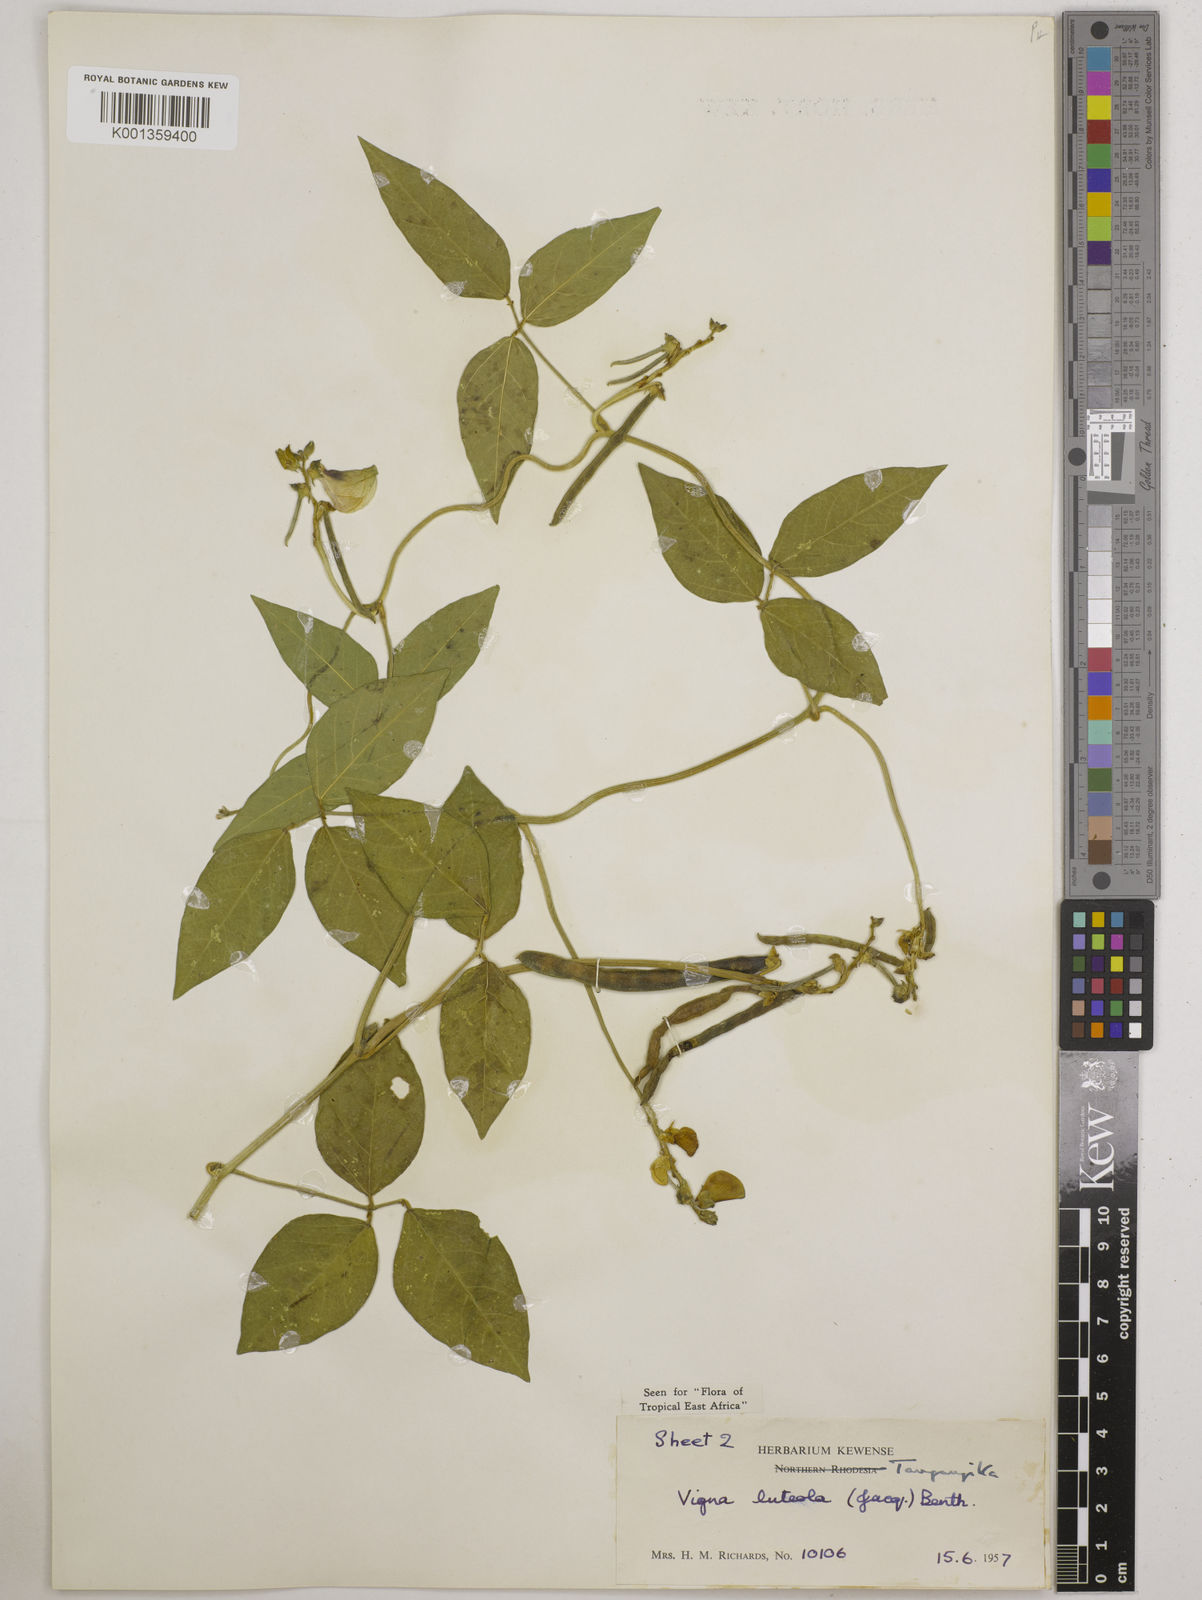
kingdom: Plantae
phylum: Tracheophyta
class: Magnoliopsida
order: Fabales
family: Fabaceae
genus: Vigna
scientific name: Vigna luteola
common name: Hairypod cowpea
